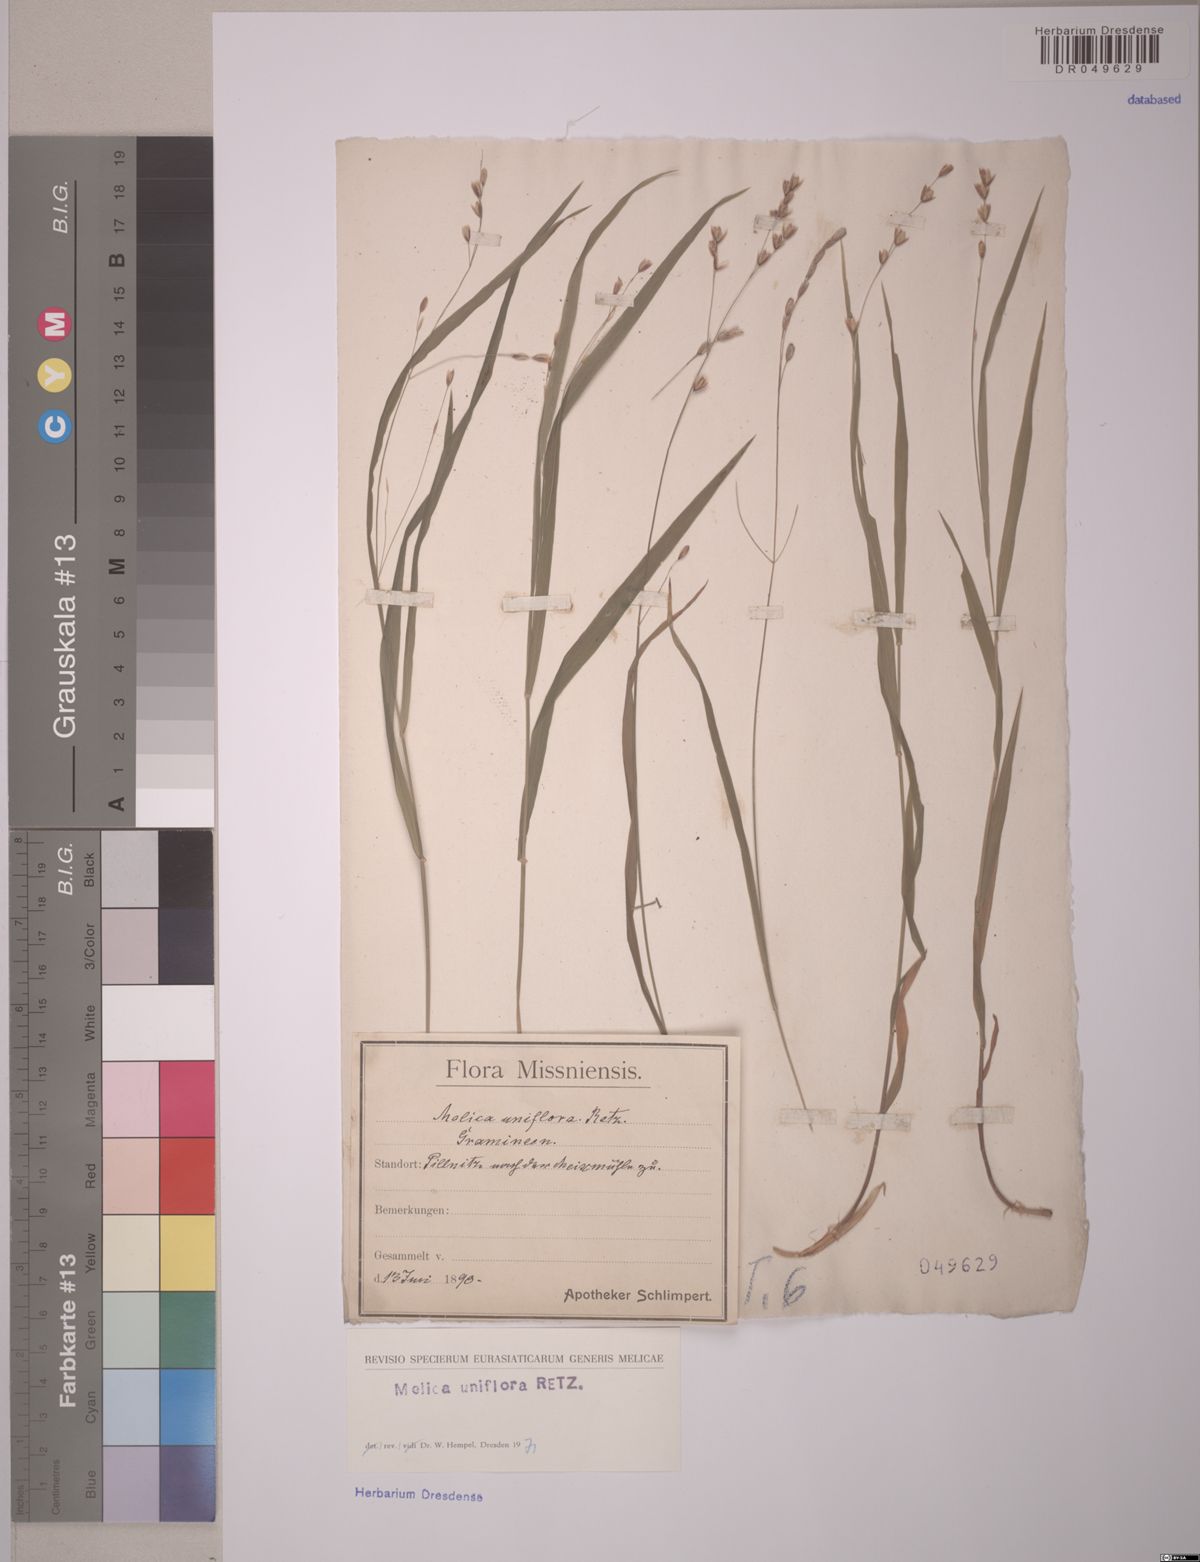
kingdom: Plantae
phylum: Tracheophyta
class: Liliopsida
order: Poales
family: Poaceae
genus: Melica
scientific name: Melica uniflora
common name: Wood melick
